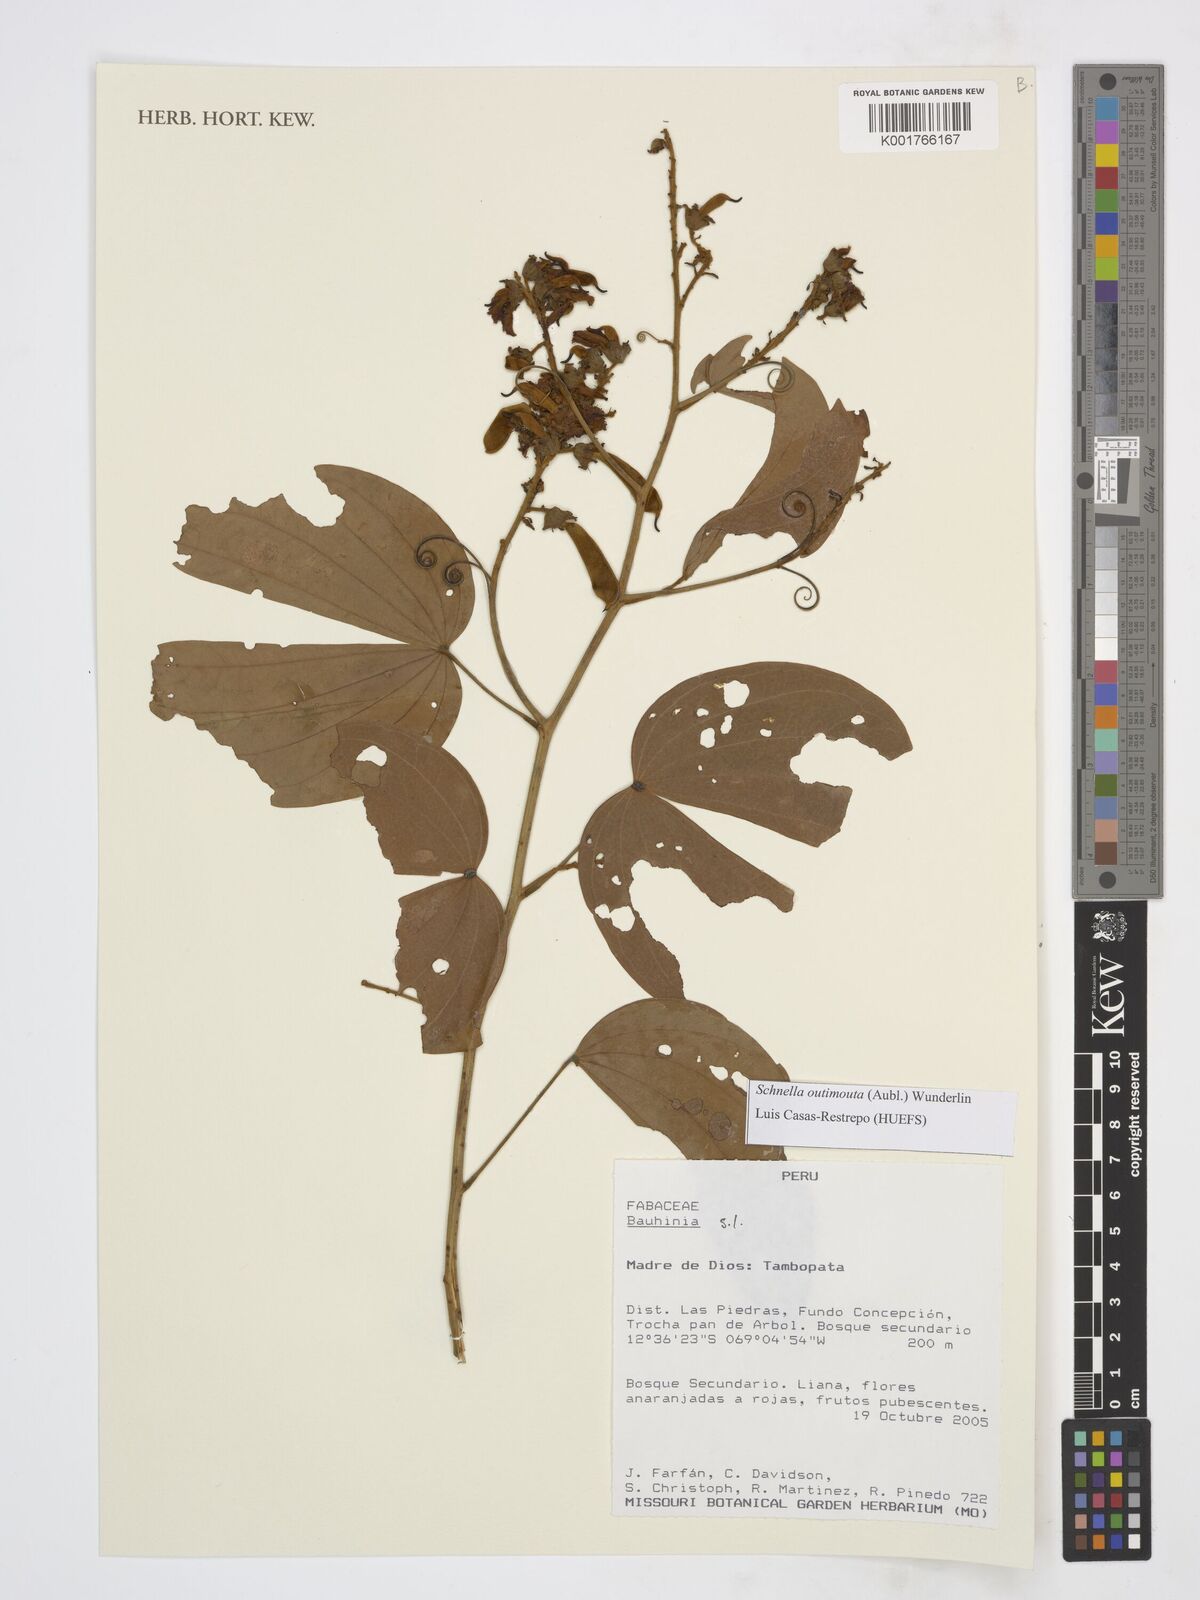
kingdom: Plantae
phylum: Tracheophyta
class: Magnoliopsida
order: Fabales
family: Fabaceae
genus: Schnella
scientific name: Schnella outimouta
